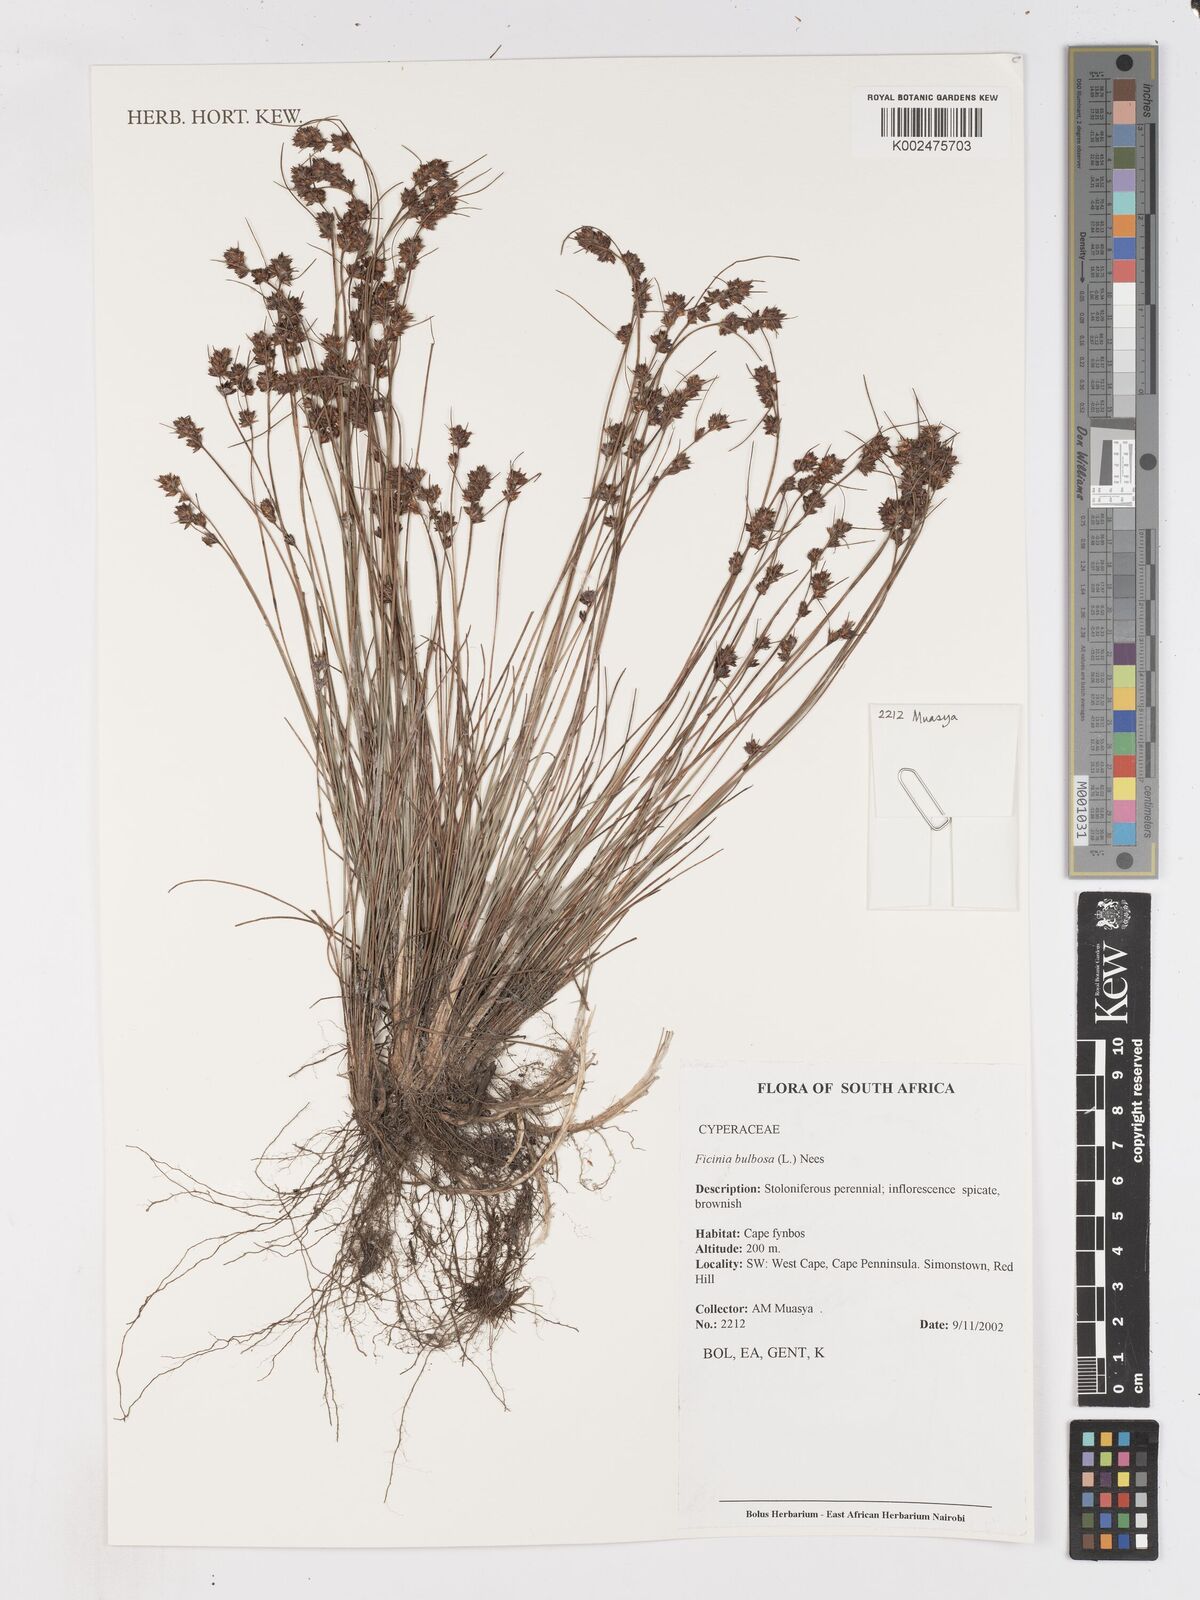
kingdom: Plantae
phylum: Tracheophyta
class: Liliopsida
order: Poales
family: Cyperaceae
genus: Ficinia
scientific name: Ficinia bulbosa
